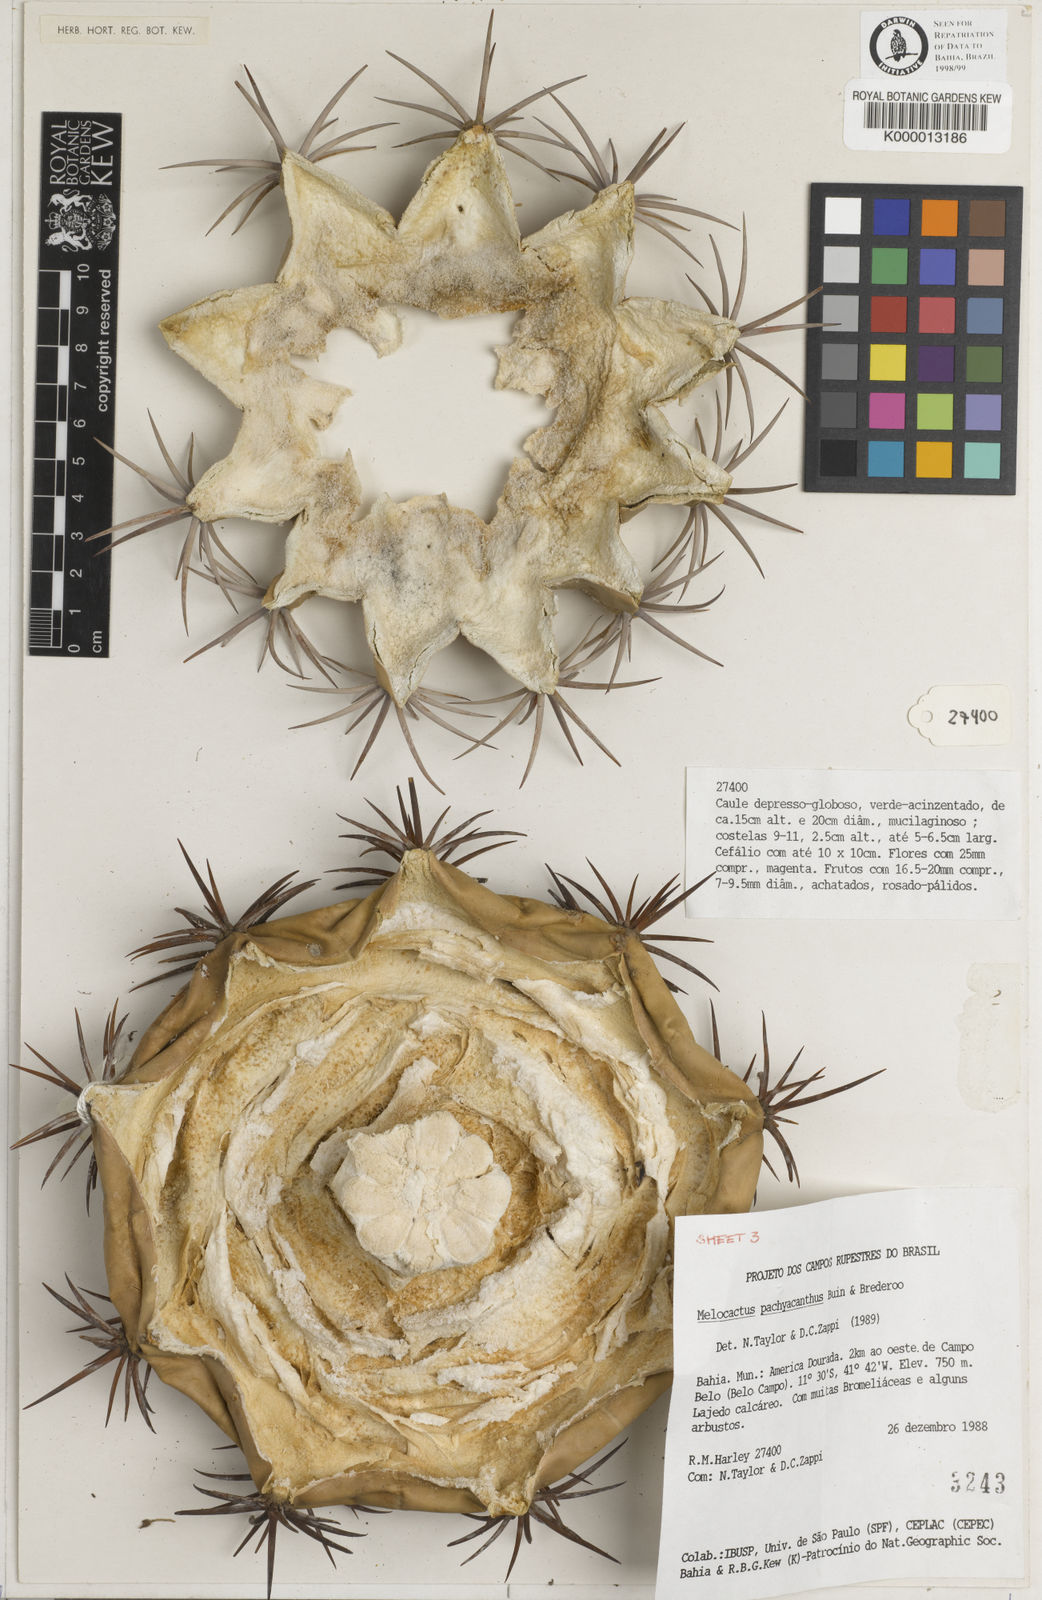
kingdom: Plantae
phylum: Tracheophyta
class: Magnoliopsida
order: Caryophyllales
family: Cactaceae
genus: Melocactus
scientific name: Melocactus neoviridescens
